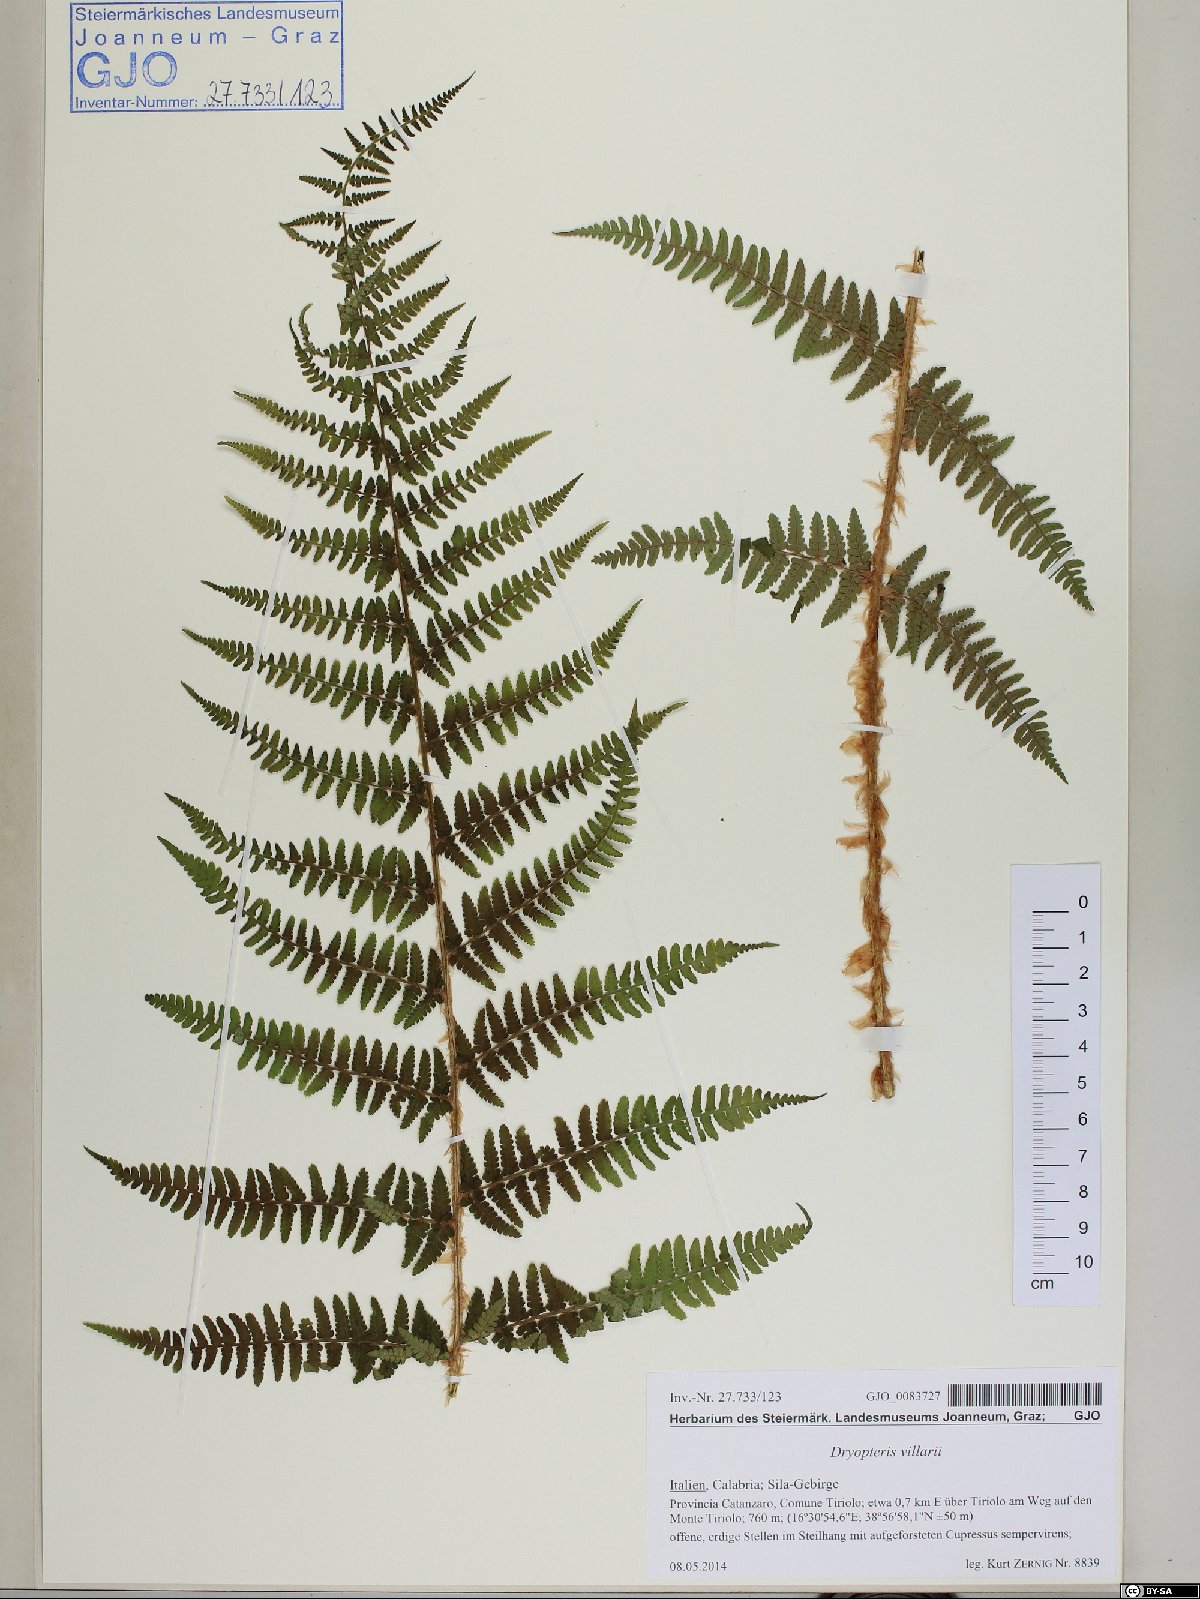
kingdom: Plantae
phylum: Tracheophyta
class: Polypodiopsida
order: Polypodiales
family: Dryopteridaceae
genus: Dryopteris
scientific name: Dryopteris villarii
